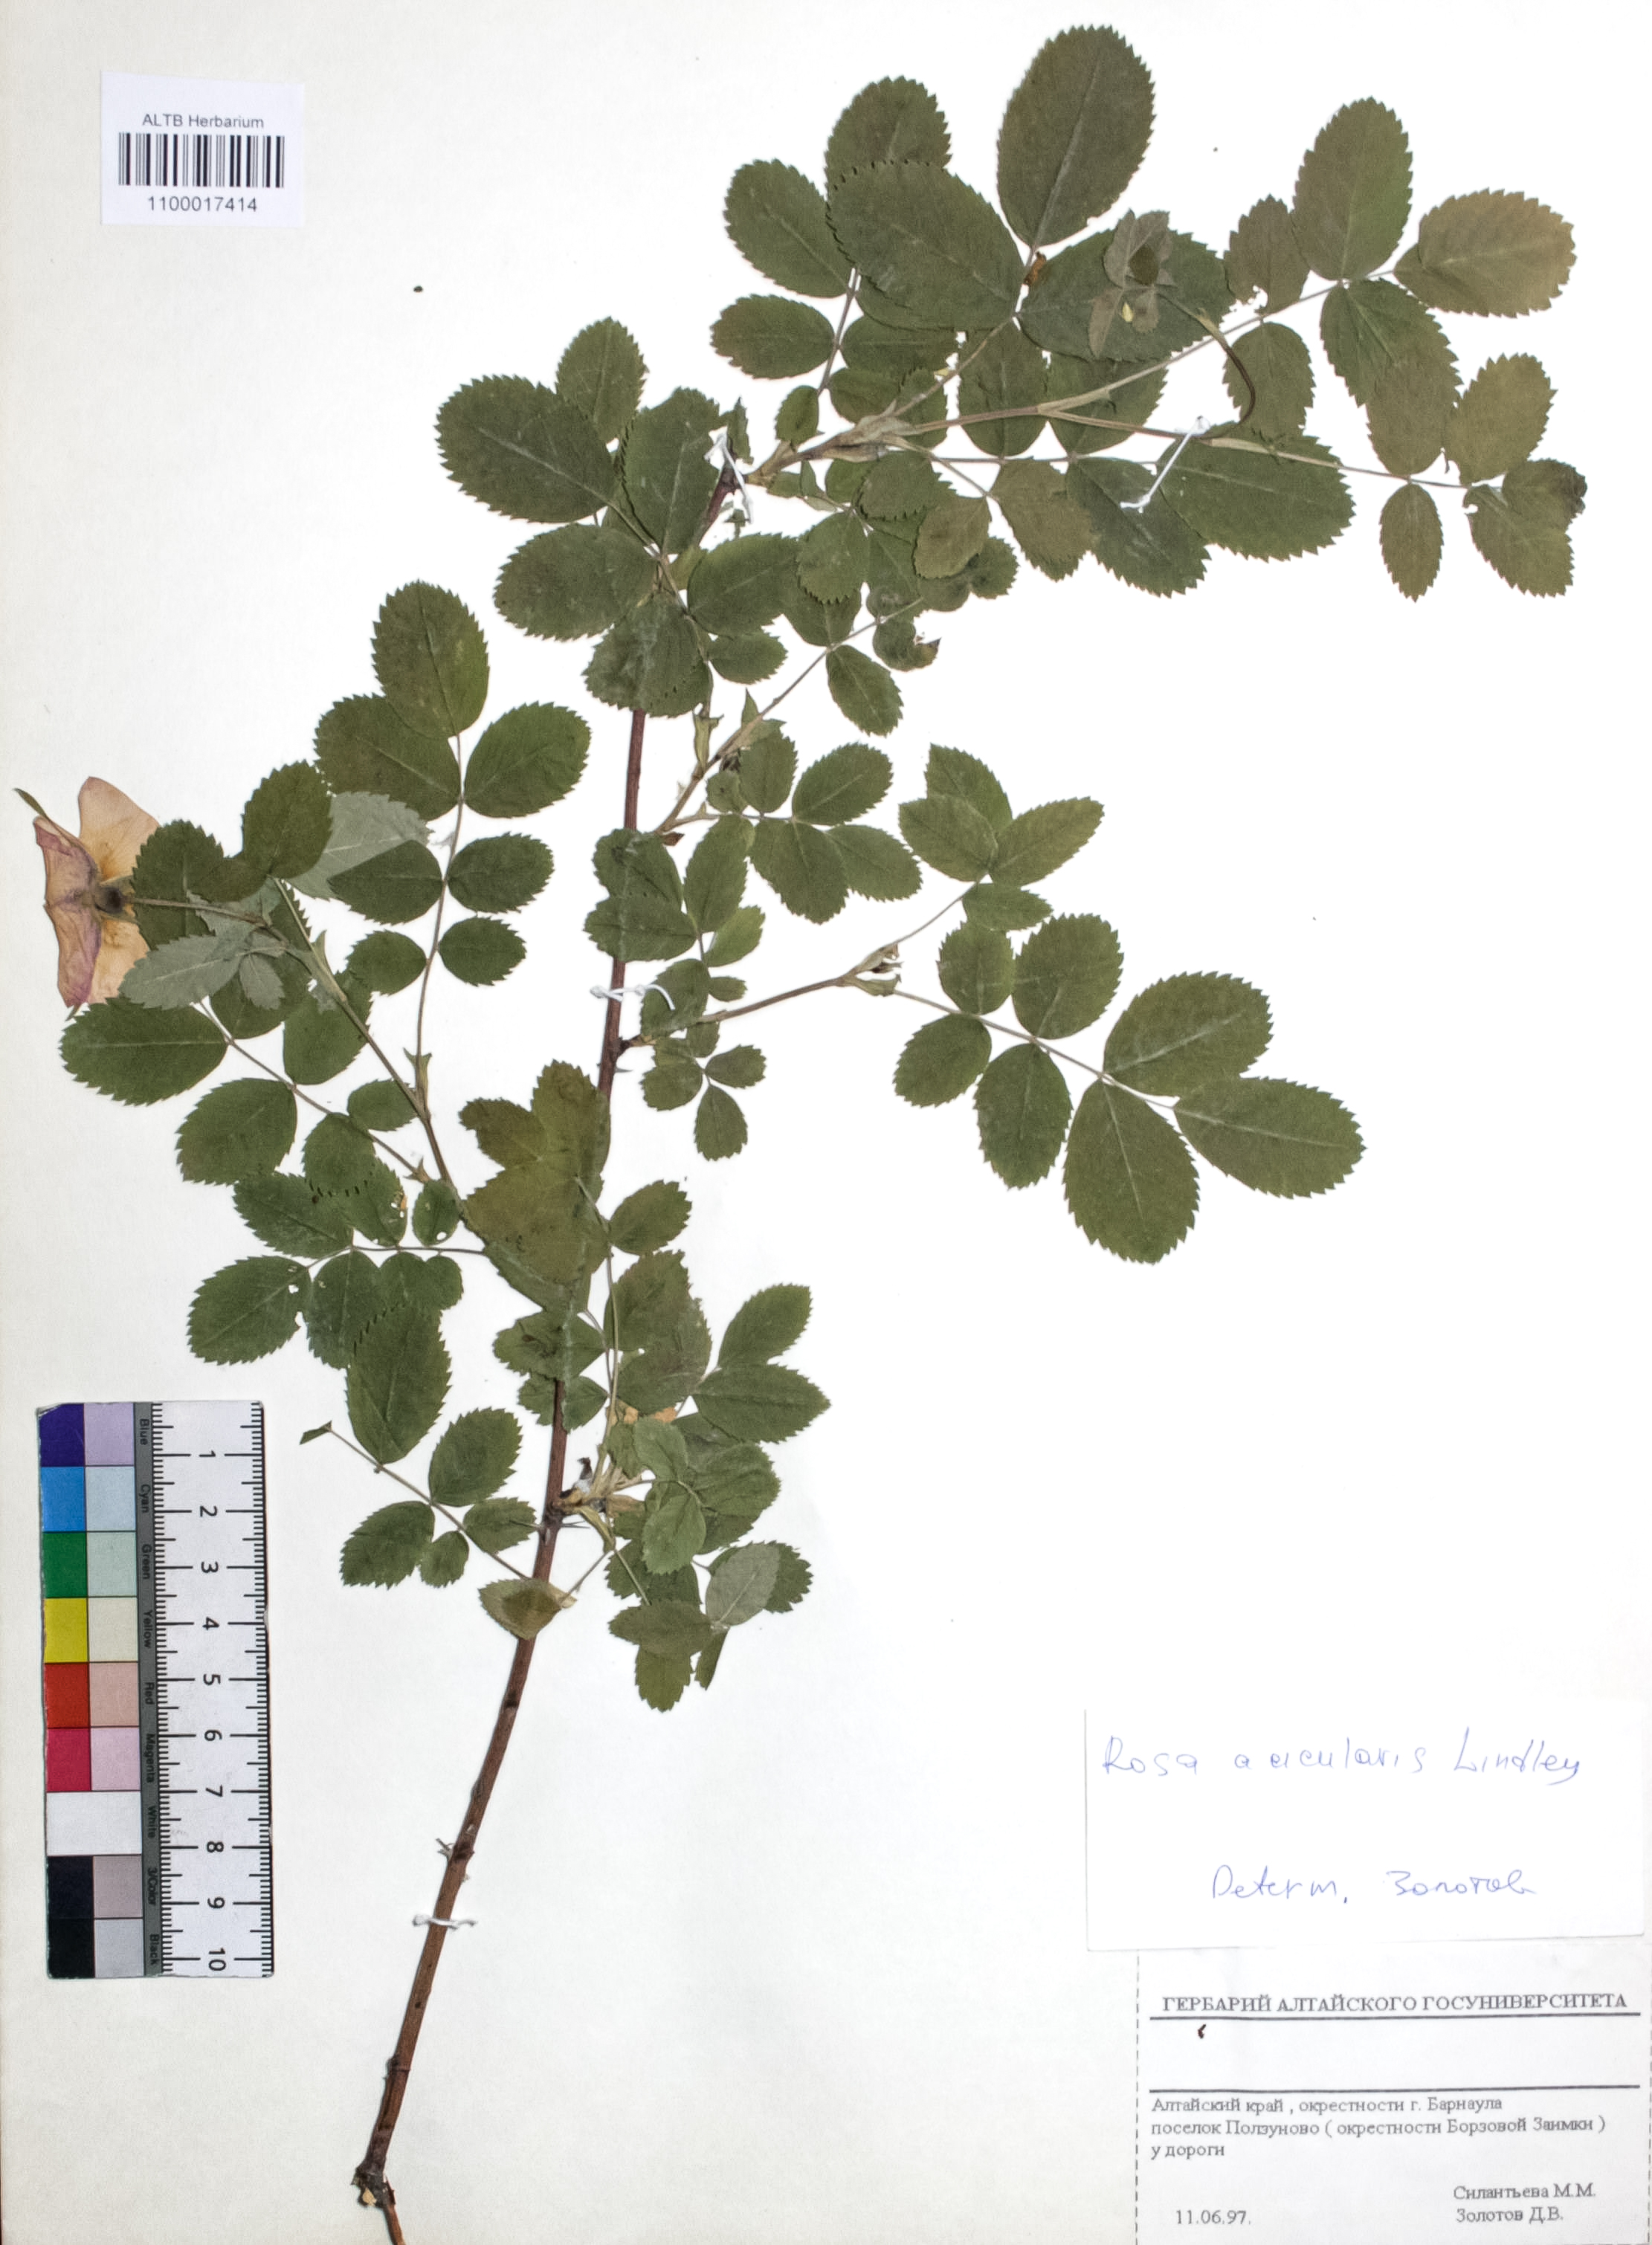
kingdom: Plantae
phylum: Tracheophyta
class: Magnoliopsida
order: Rosales
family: Rosaceae
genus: Rosa
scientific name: Rosa acicularis
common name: Prickly rose
